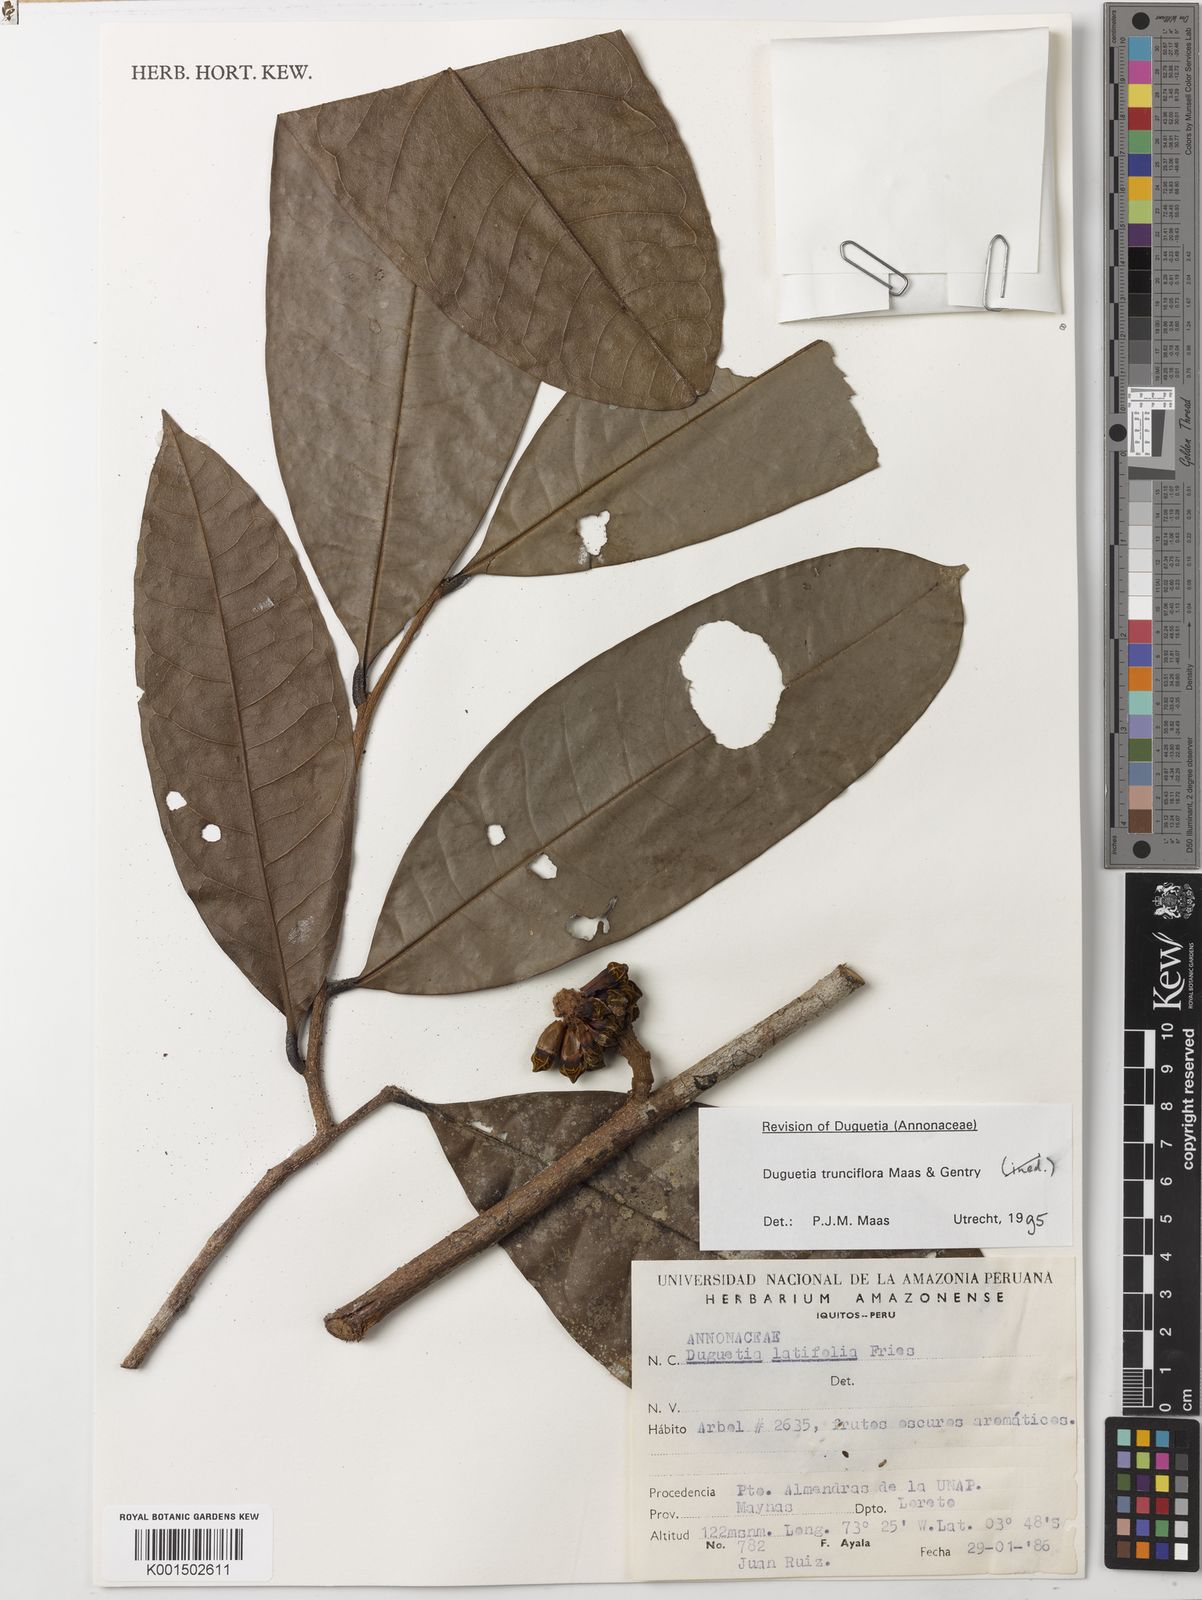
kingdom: Plantae
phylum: Tracheophyta
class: Magnoliopsida
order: Magnoliales
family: Annonaceae
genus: Duguetia
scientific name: Duguetia trunciflora
